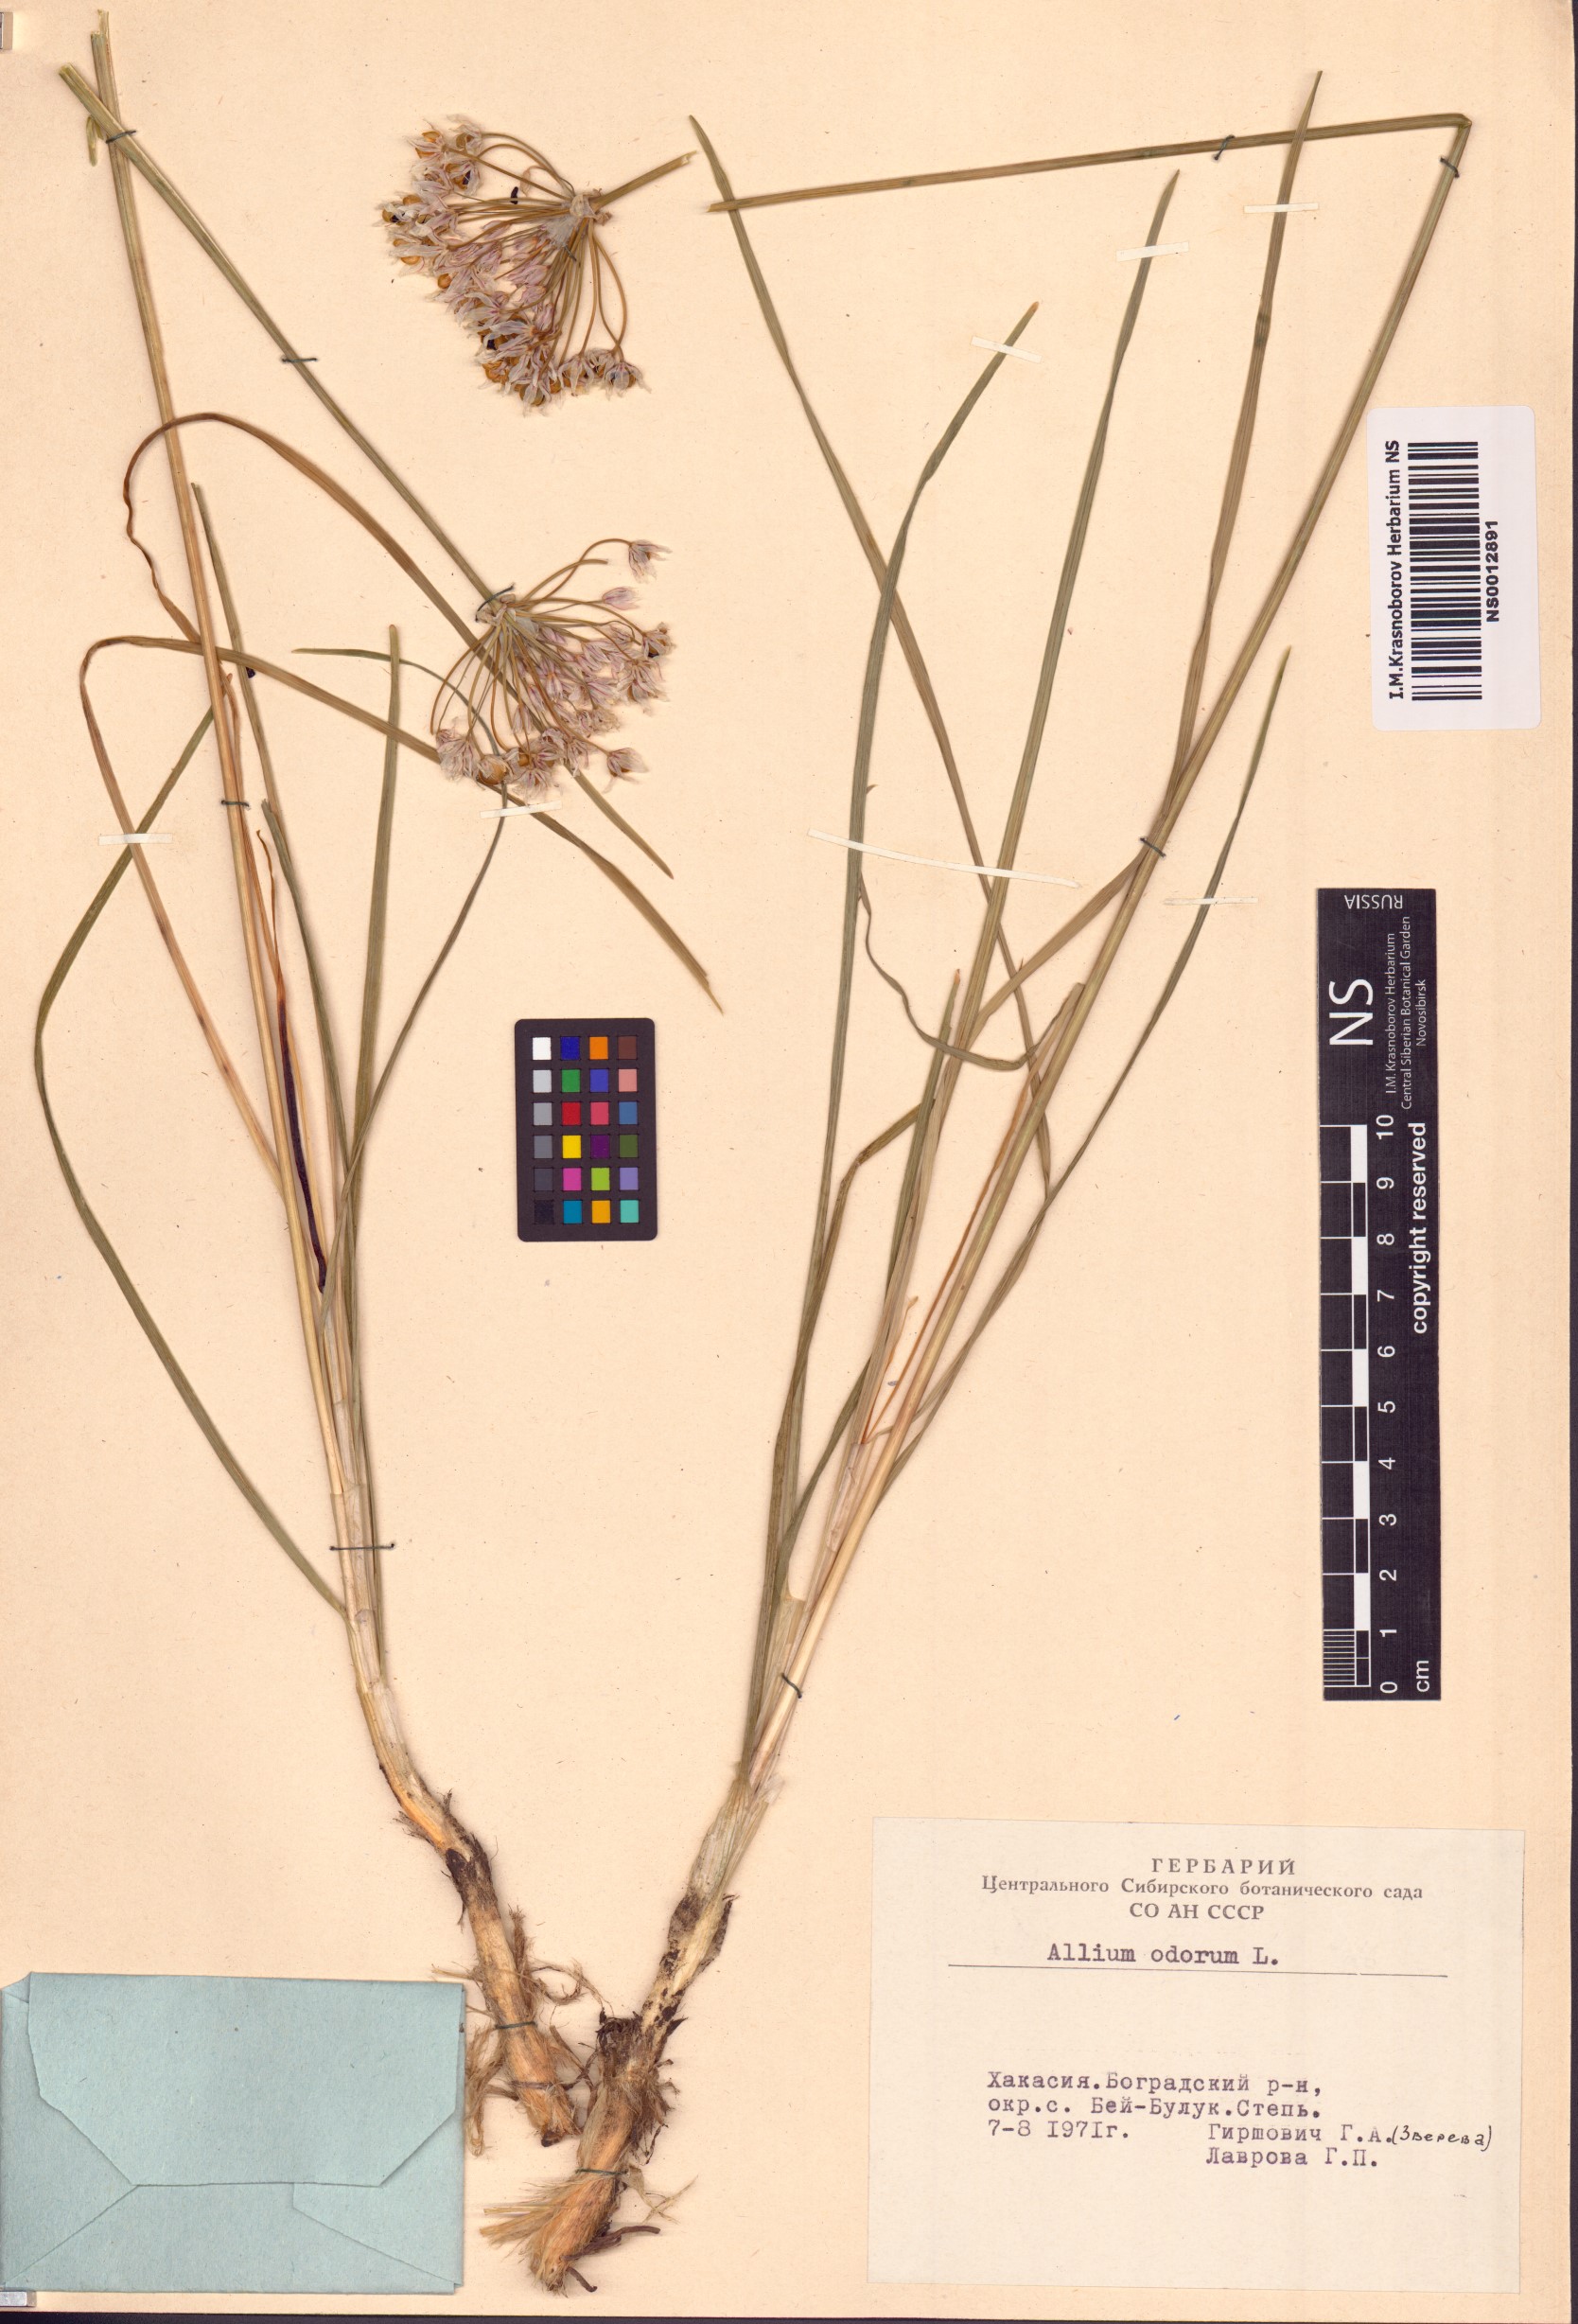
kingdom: Plantae
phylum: Tracheophyta
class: Liliopsida
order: Asparagales
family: Amaryllidaceae
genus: Allium
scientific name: Allium ramosum
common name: Fragrant garlic
